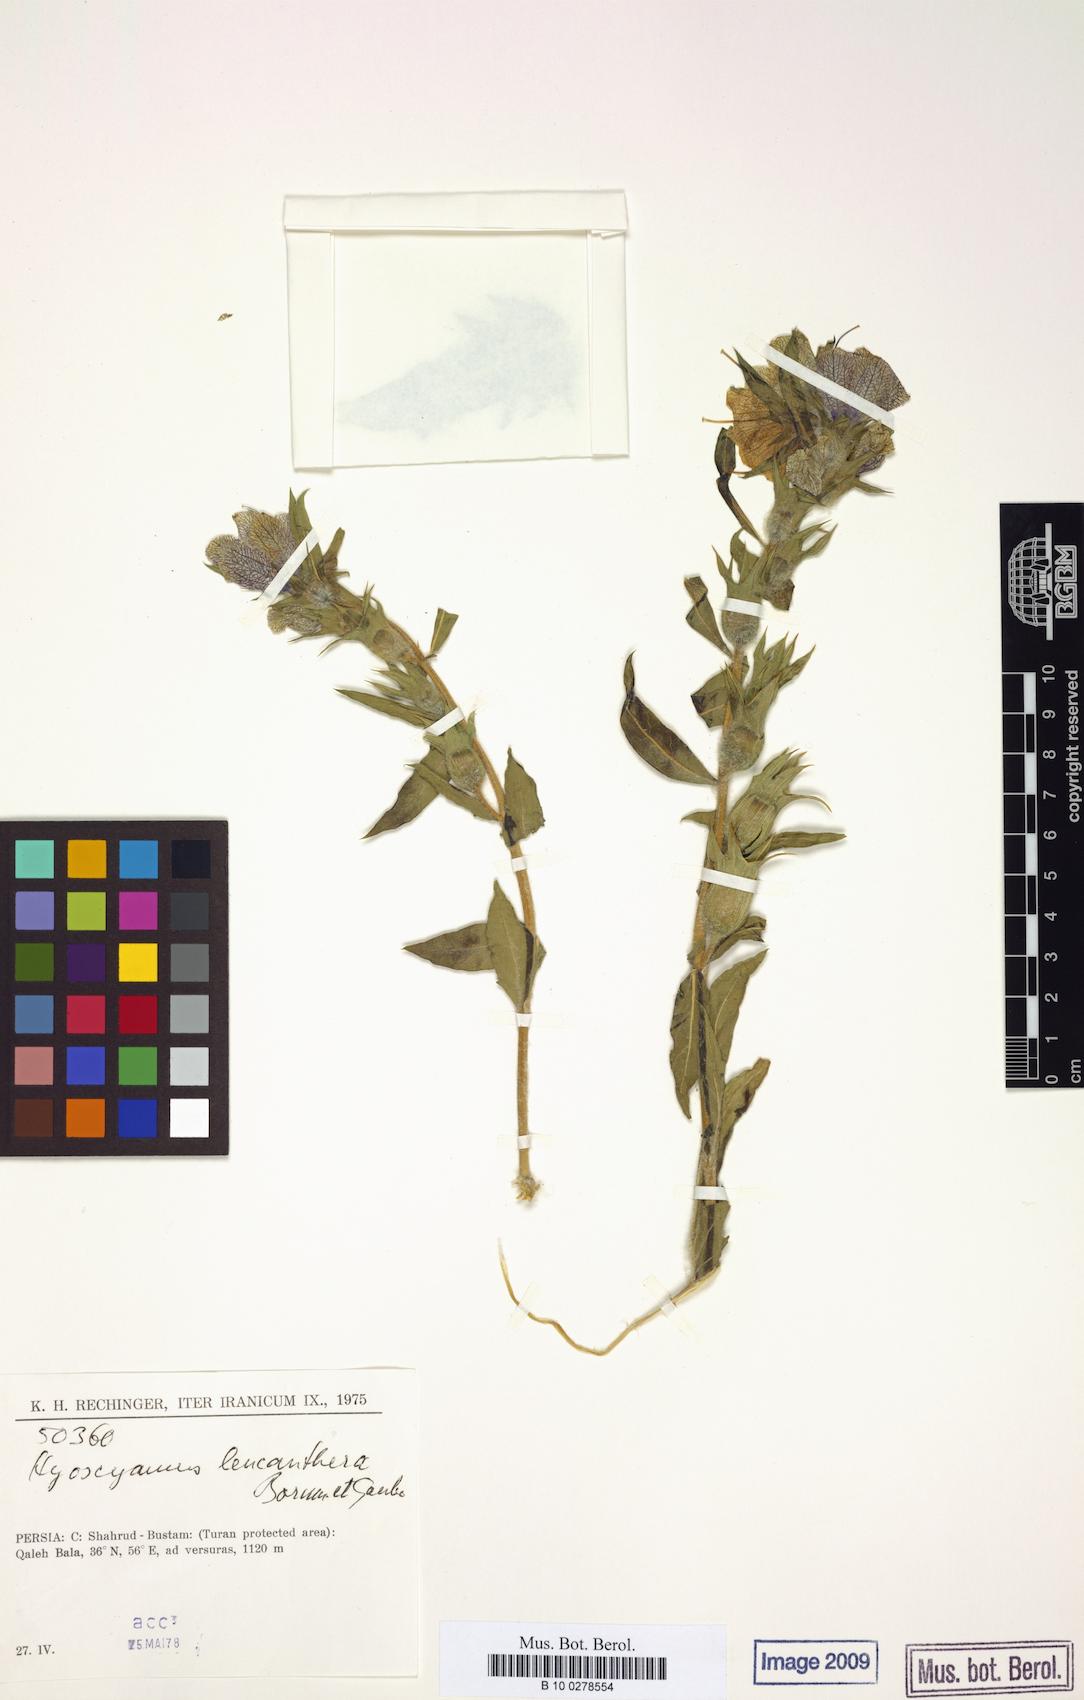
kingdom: Plantae
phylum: Tracheophyta
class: Magnoliopsida
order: Solanales
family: Solanaceae
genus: Hyoscyamus
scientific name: Hyoscyamus leucanthera
